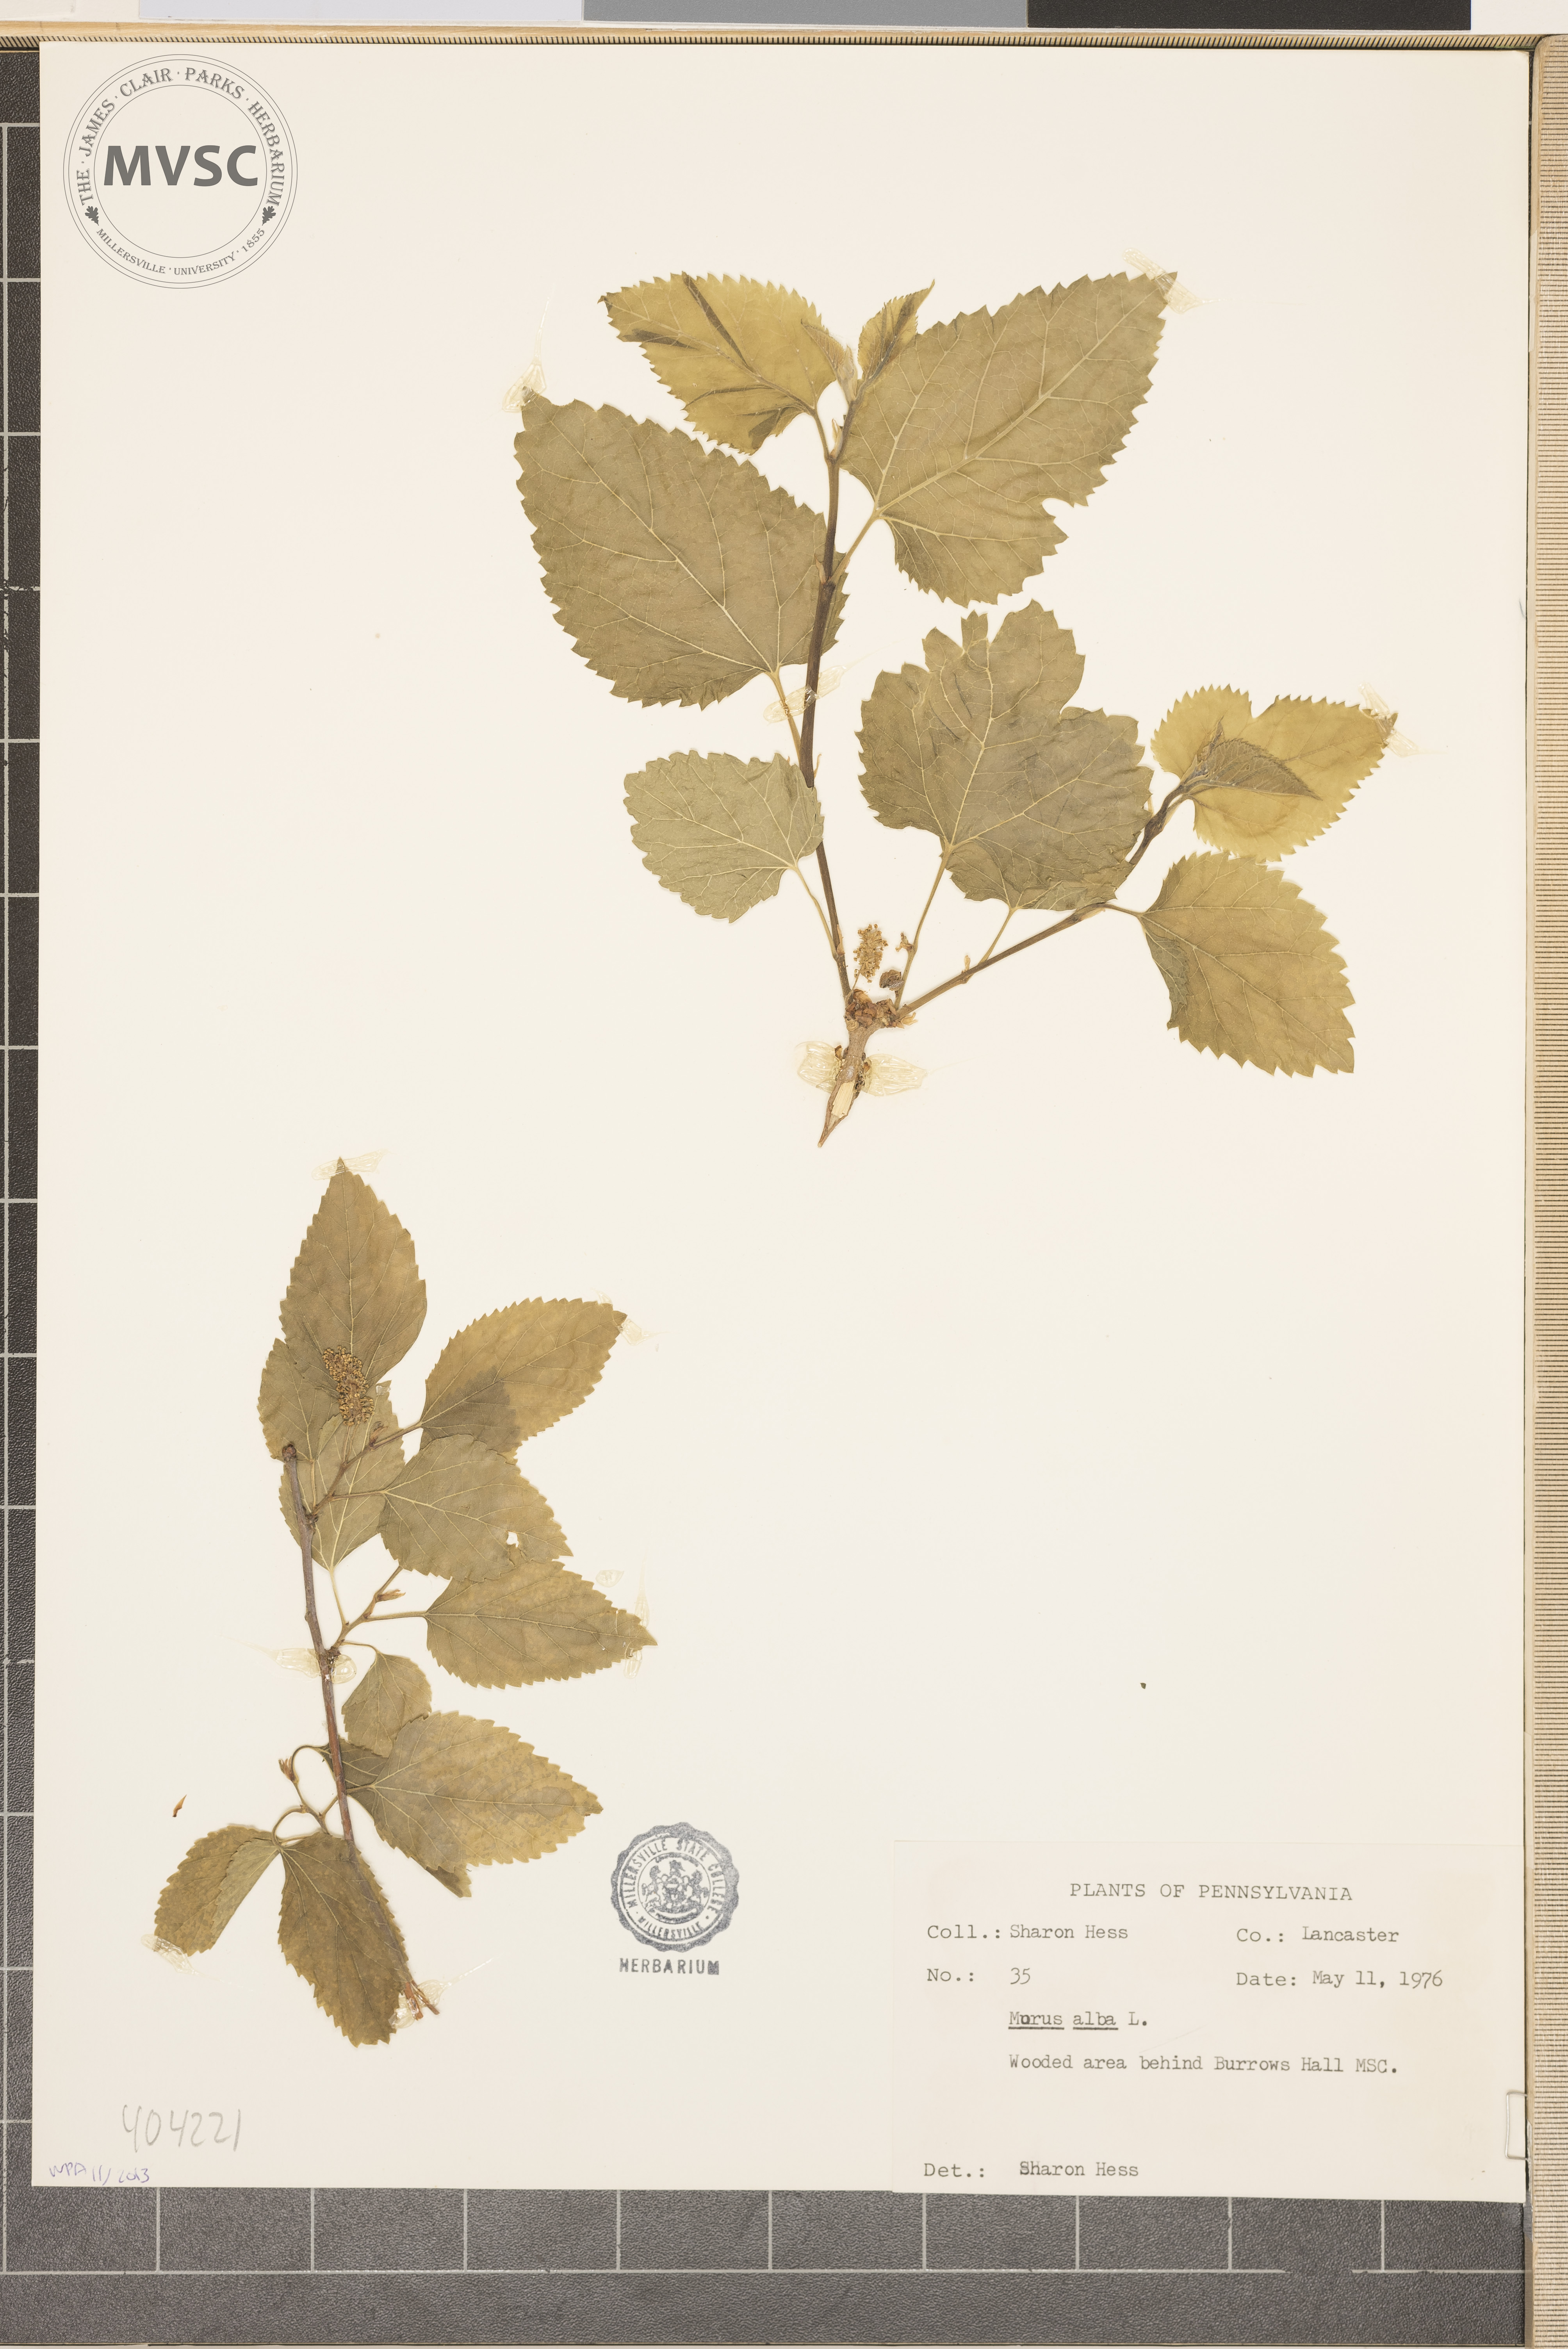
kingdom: Plantae
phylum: Tracheophyta
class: Magnoliopsida
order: Rosales
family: Moraceae
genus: Morus
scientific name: Morus alba
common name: White mulberry
